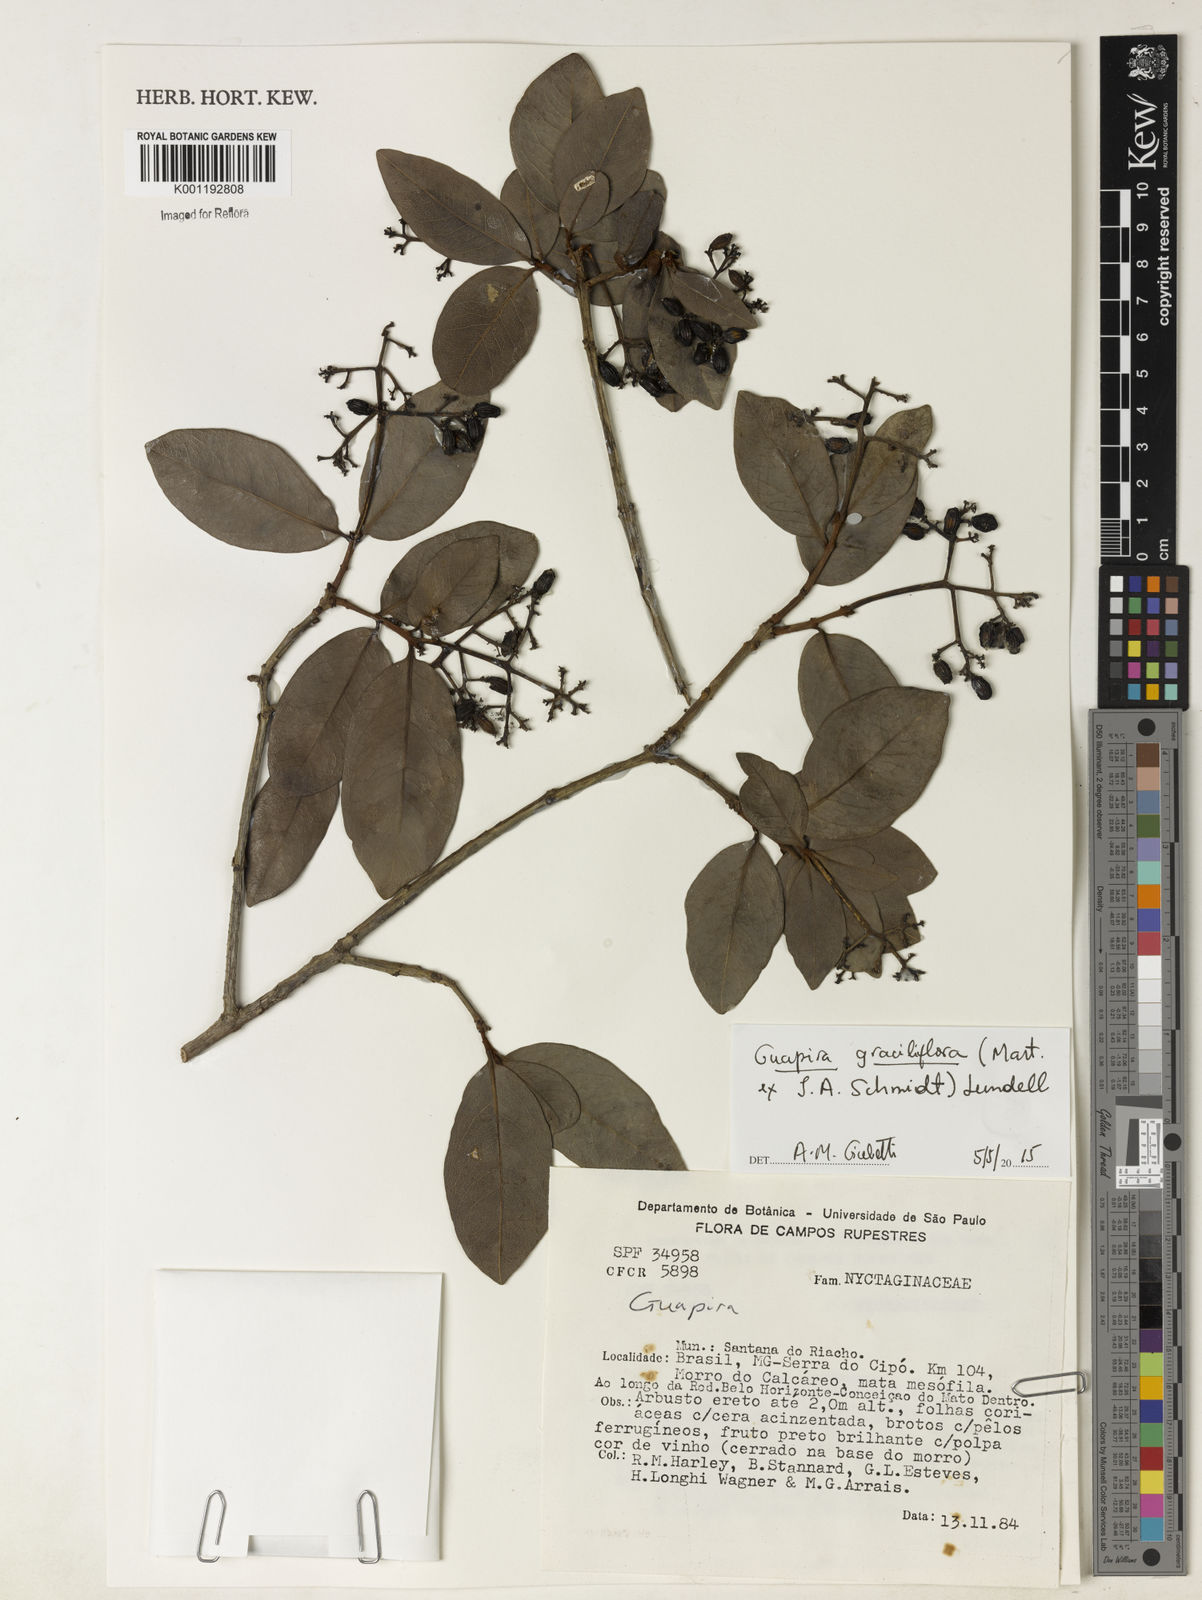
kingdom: Plantae
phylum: Tracheophyta
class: Magnoliopsida
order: Caryophyllales
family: Nyctaginaceae
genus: Guapira
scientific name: Guapira graciliflora
